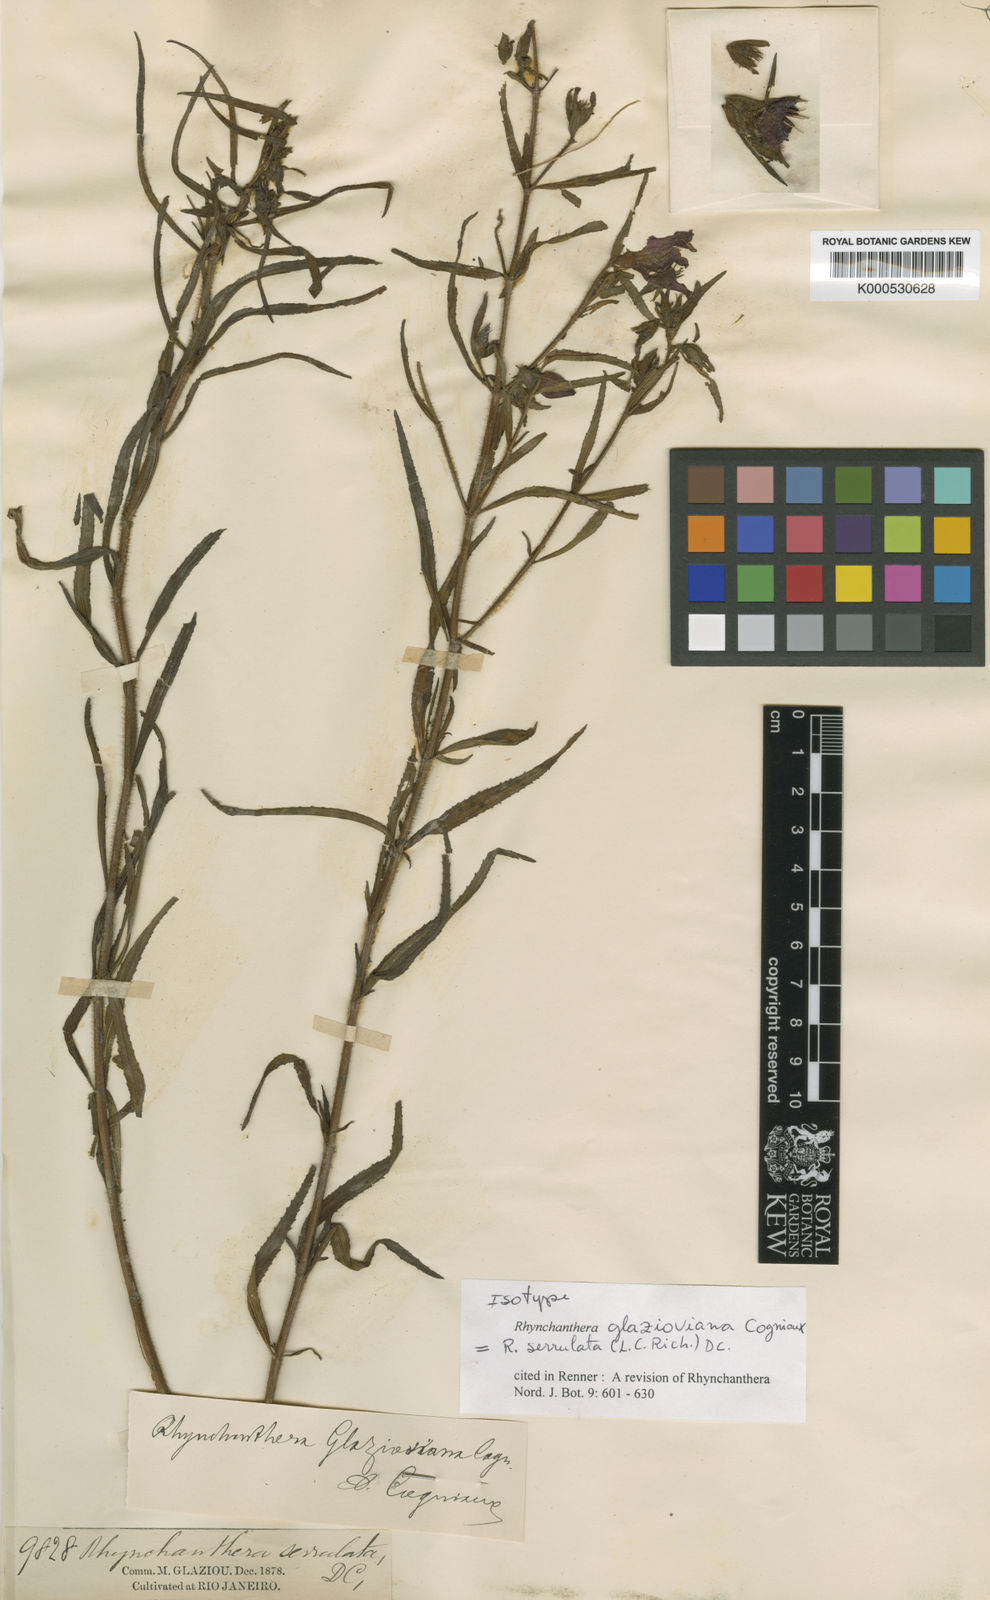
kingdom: Plantae
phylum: Tracheophyta
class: Magnoliopsida
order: Myrtales
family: Melastomataceae
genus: Rhynchanthera
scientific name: Rhynchanthera serrulata
